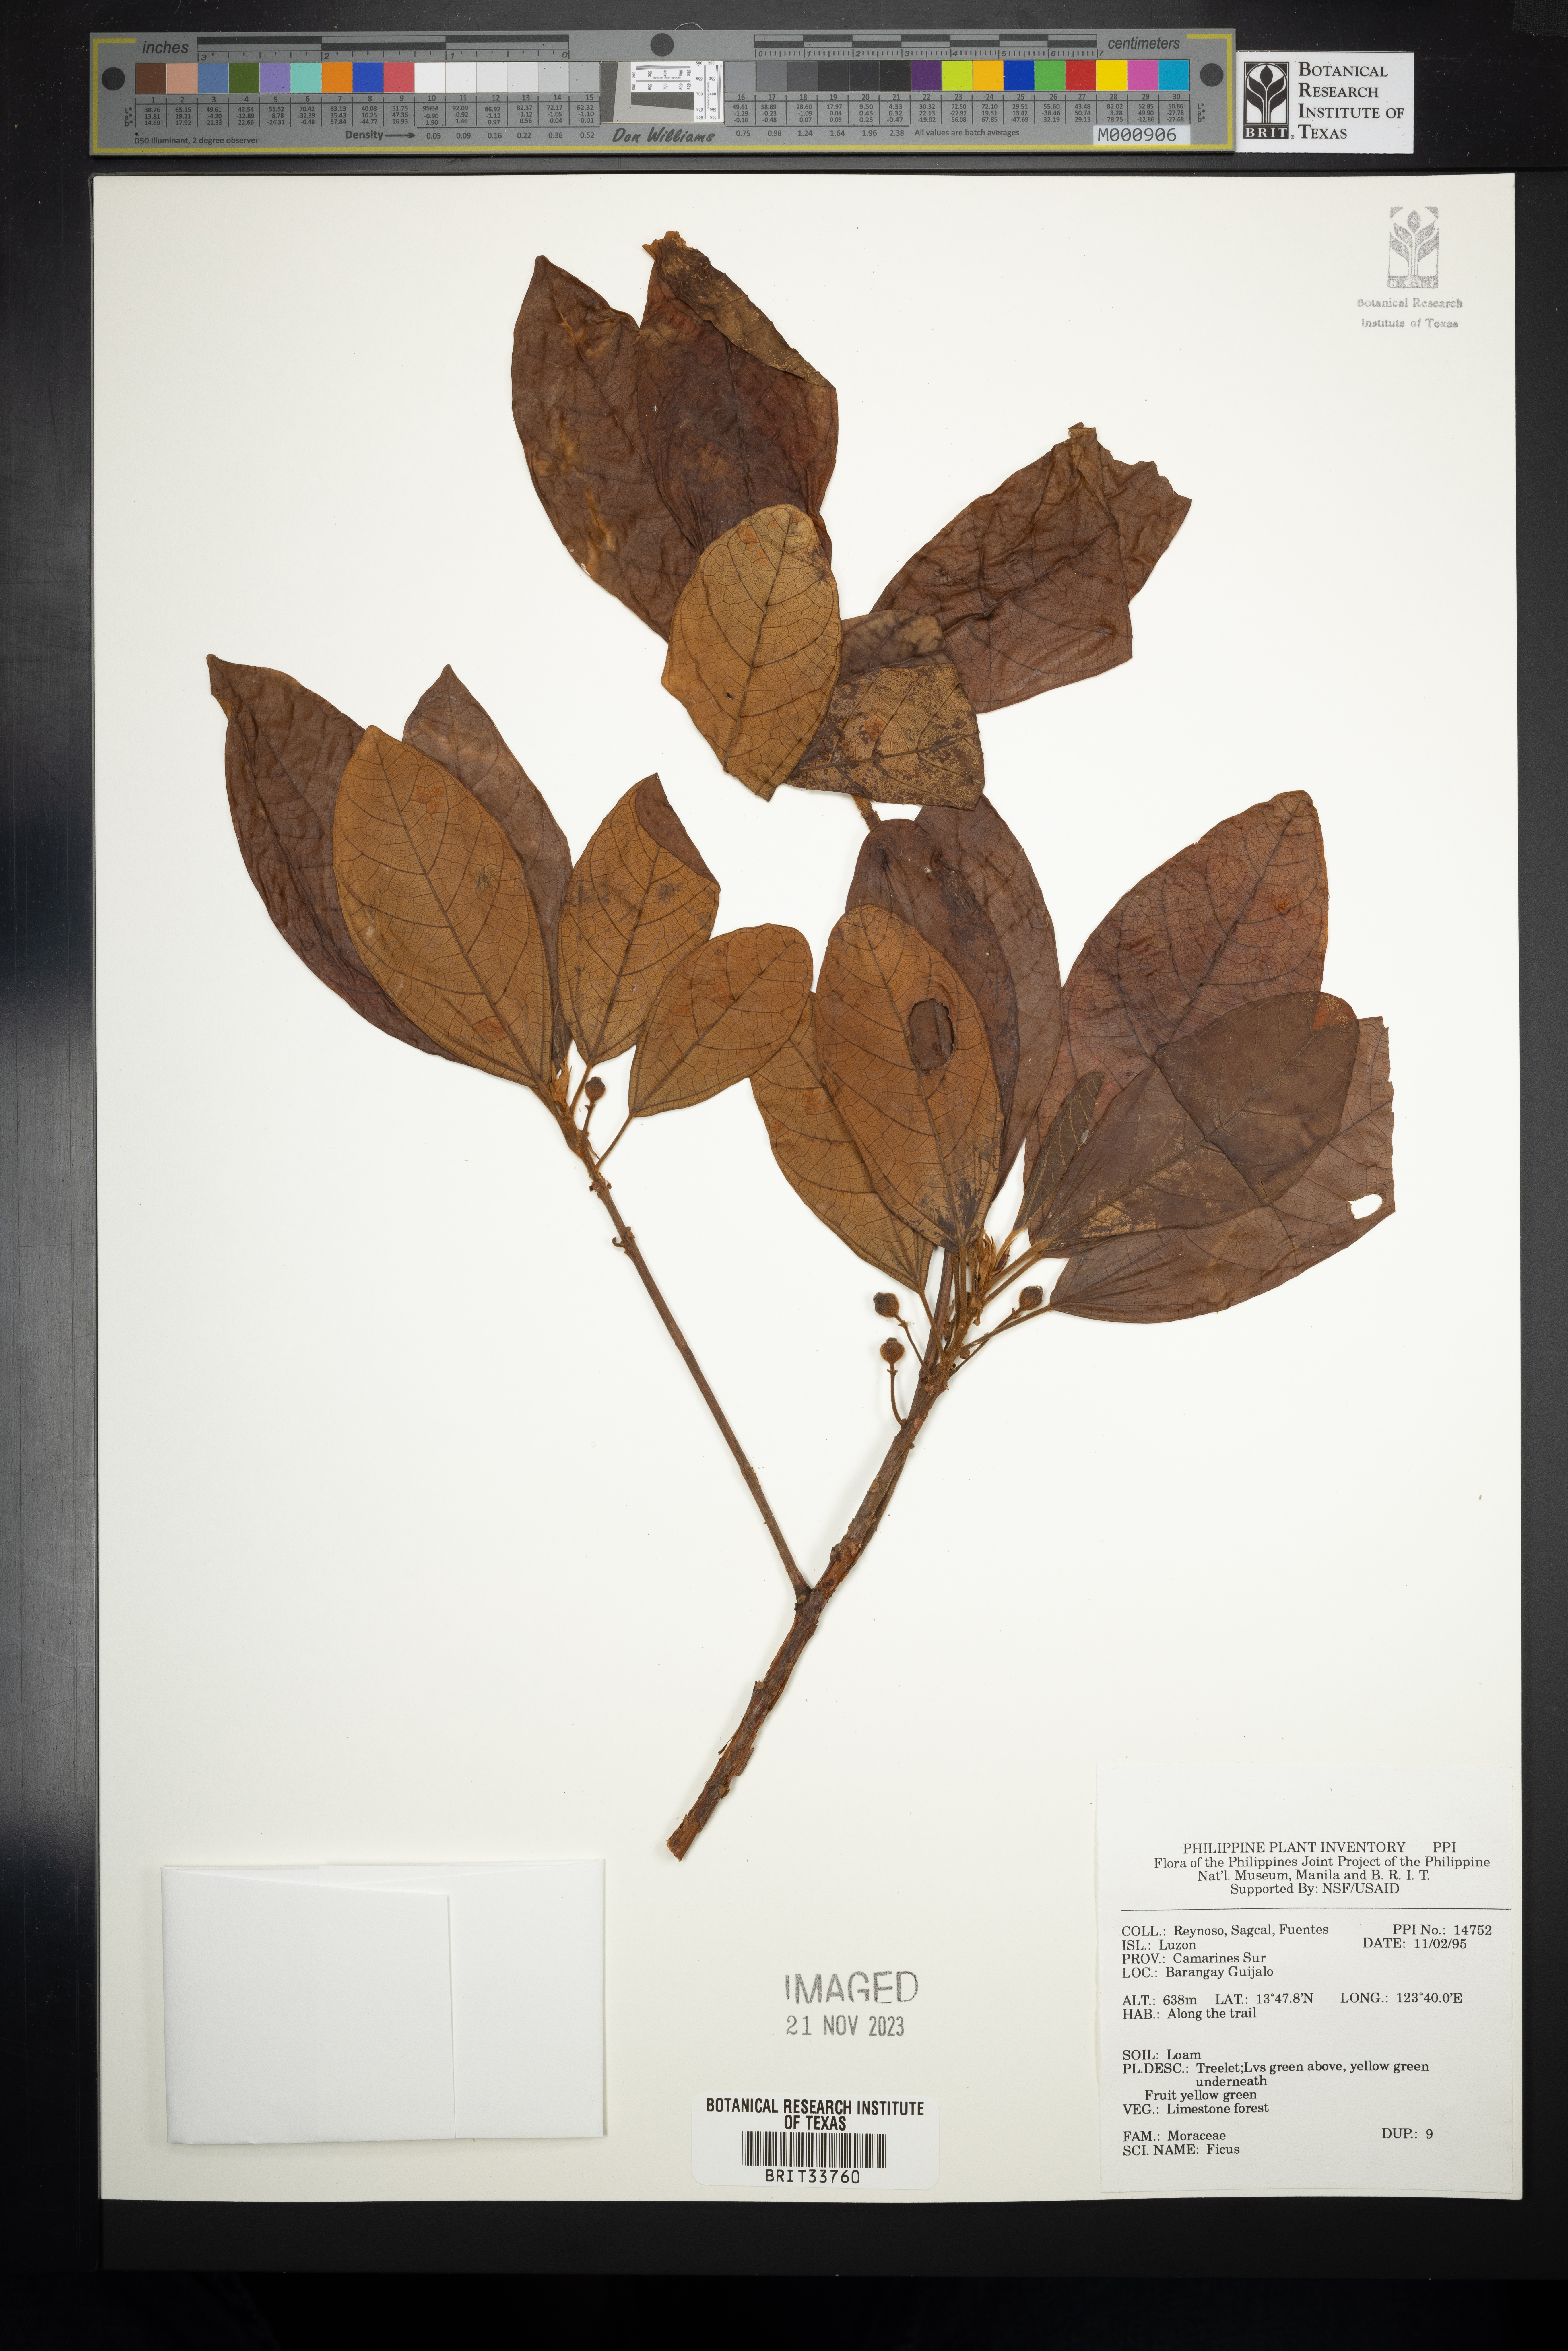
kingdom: Plantae
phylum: Tracheophyta
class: Magnoliopsida
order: Rosales
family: Moraceae
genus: Ficus
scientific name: Ficus
